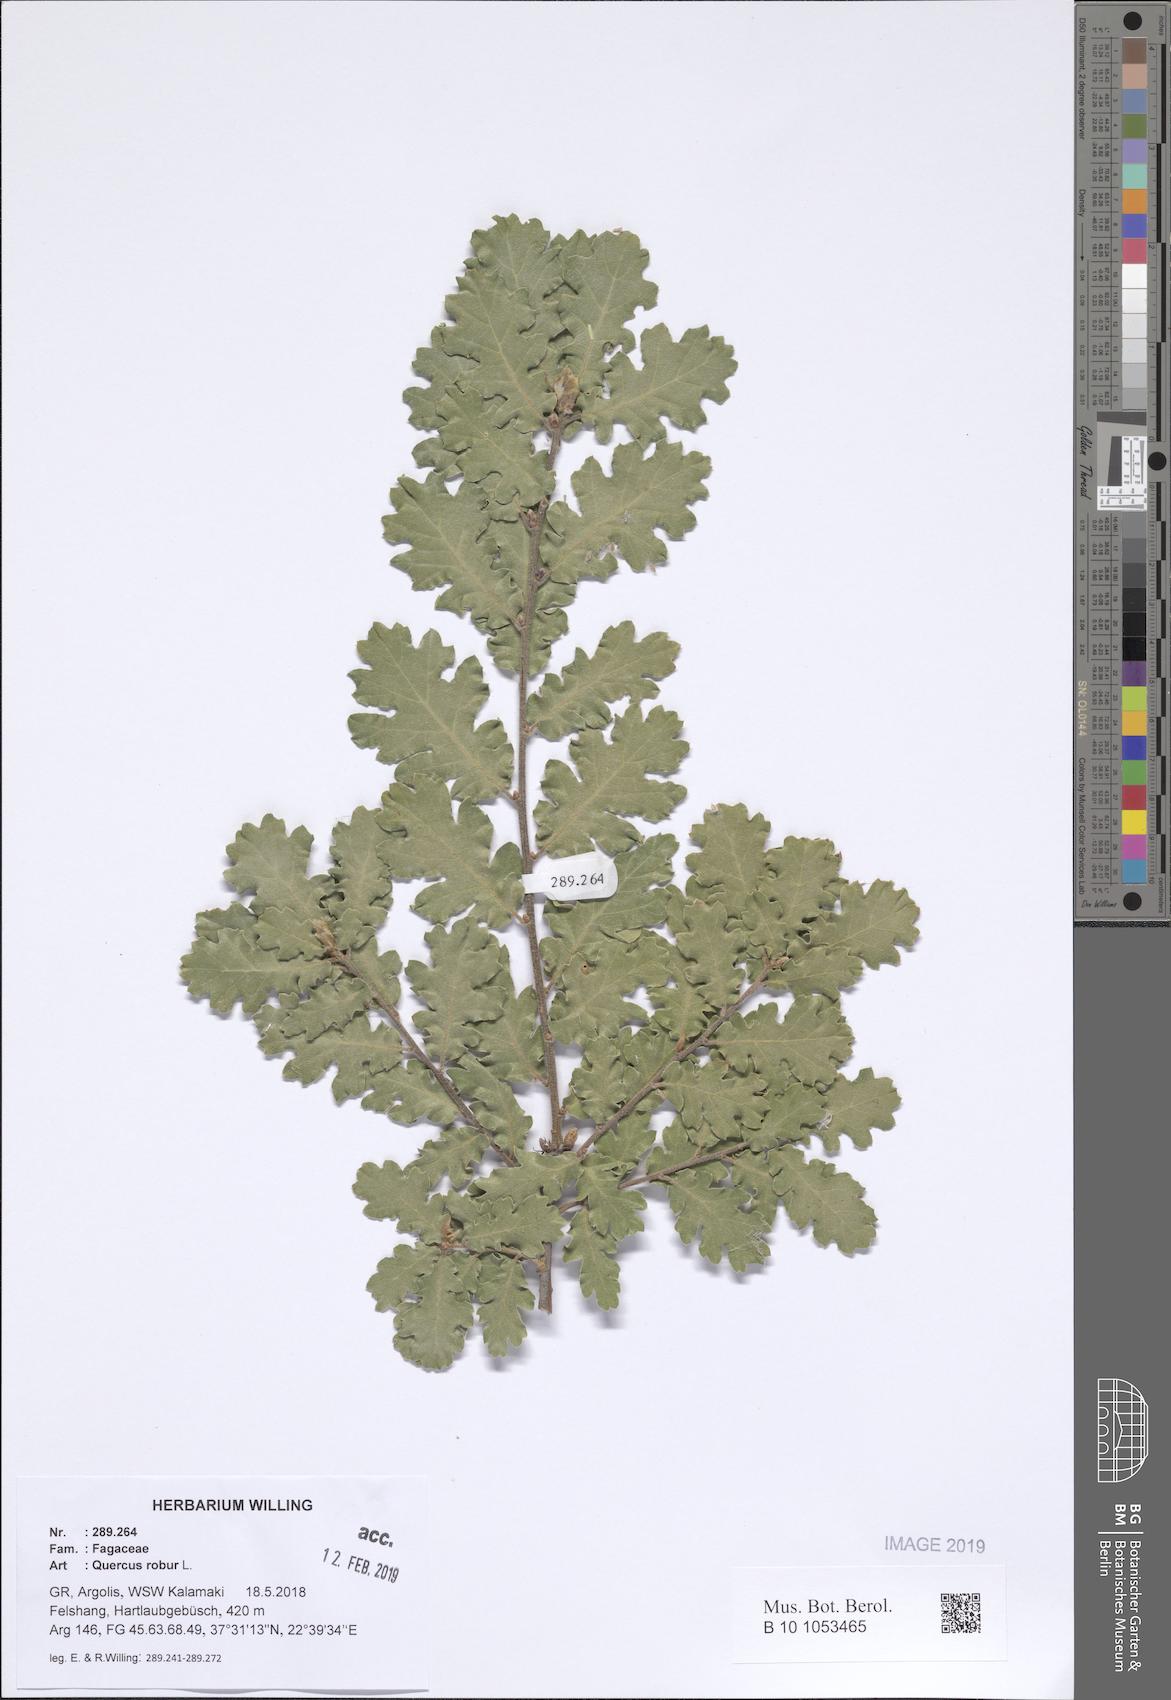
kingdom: Plantae
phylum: Tracheophyta
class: Magnoliopsida
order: Fagales
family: Fagaceae
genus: Quercus
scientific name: Quercus robur
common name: Pedunculate oak
